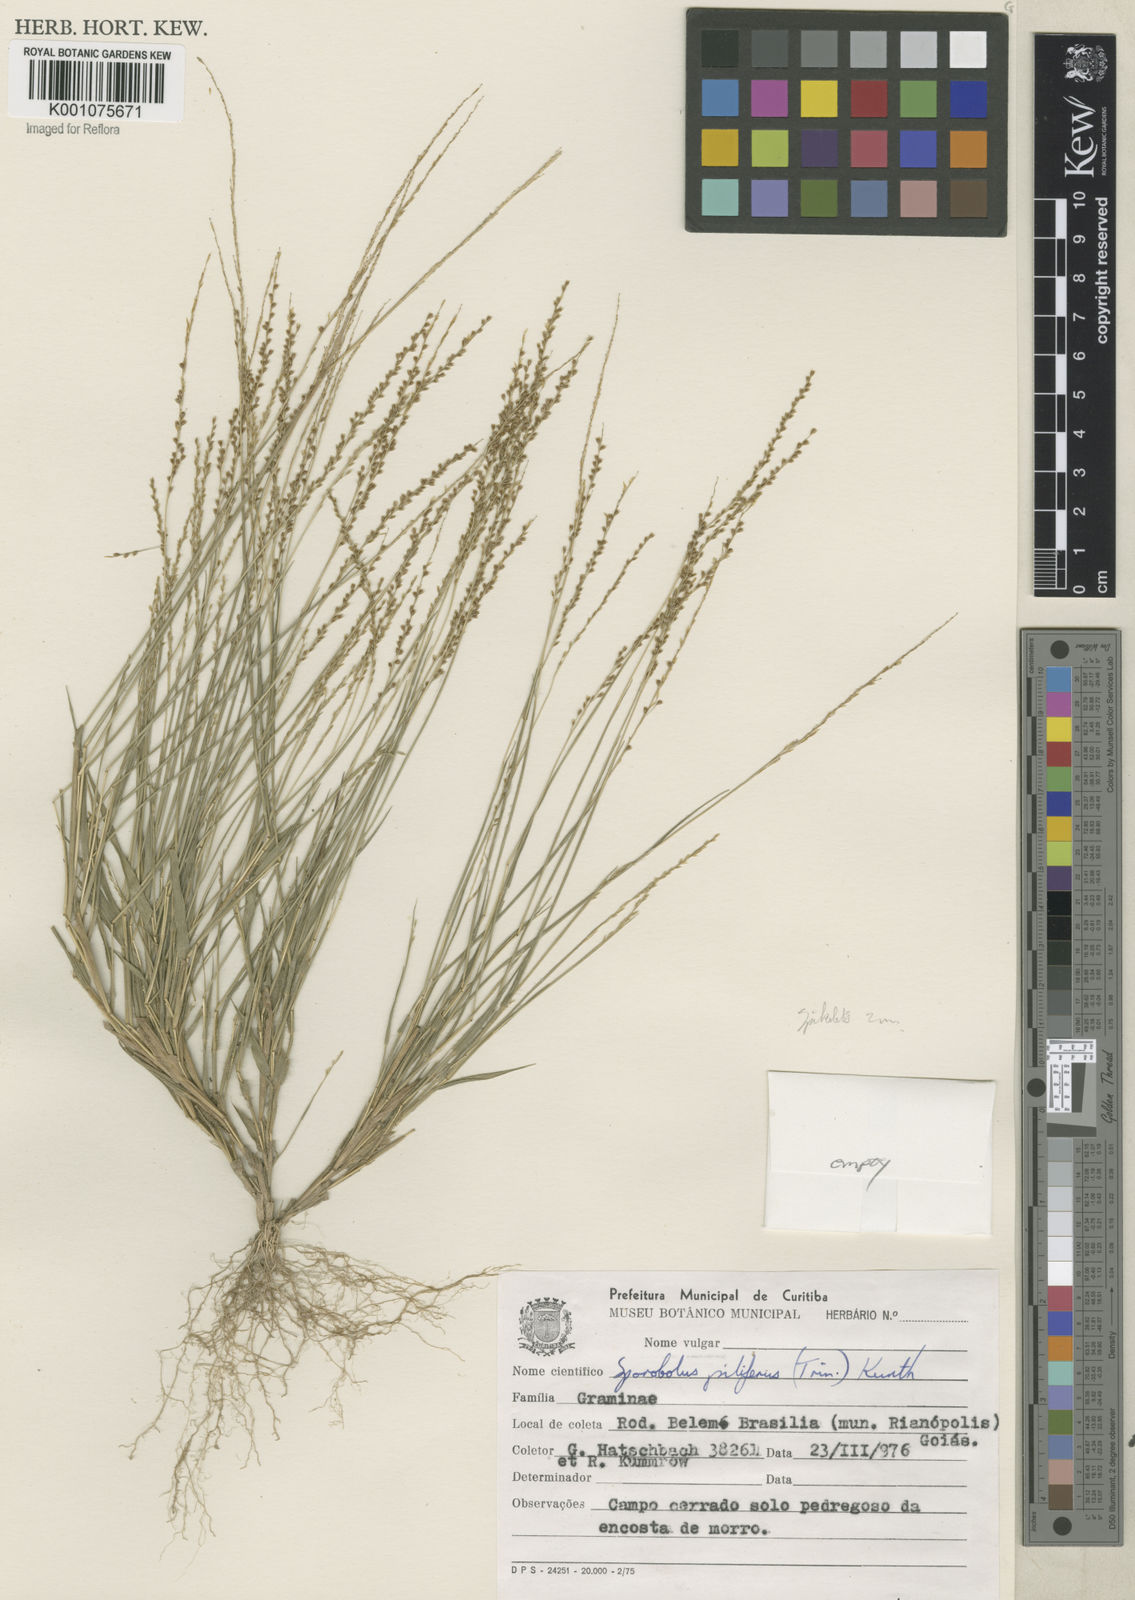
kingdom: Plantae
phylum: Tracheophyta
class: Liliopsida
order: Poales
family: Poaceae
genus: Sporobolus
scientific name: Sporobolus pilifer
